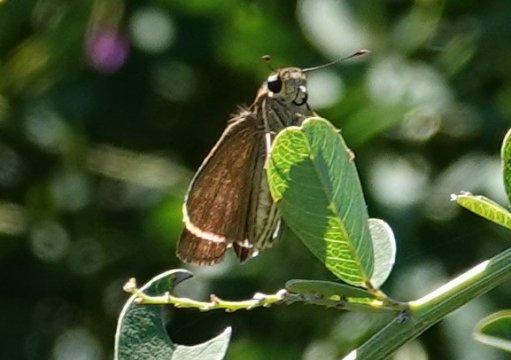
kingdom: Animalia
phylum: Arthropoda
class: Insecta
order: Lepidoptera
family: Hesperiidae
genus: Panoquina
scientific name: Panoquina ocola
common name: Ocola Skipper
